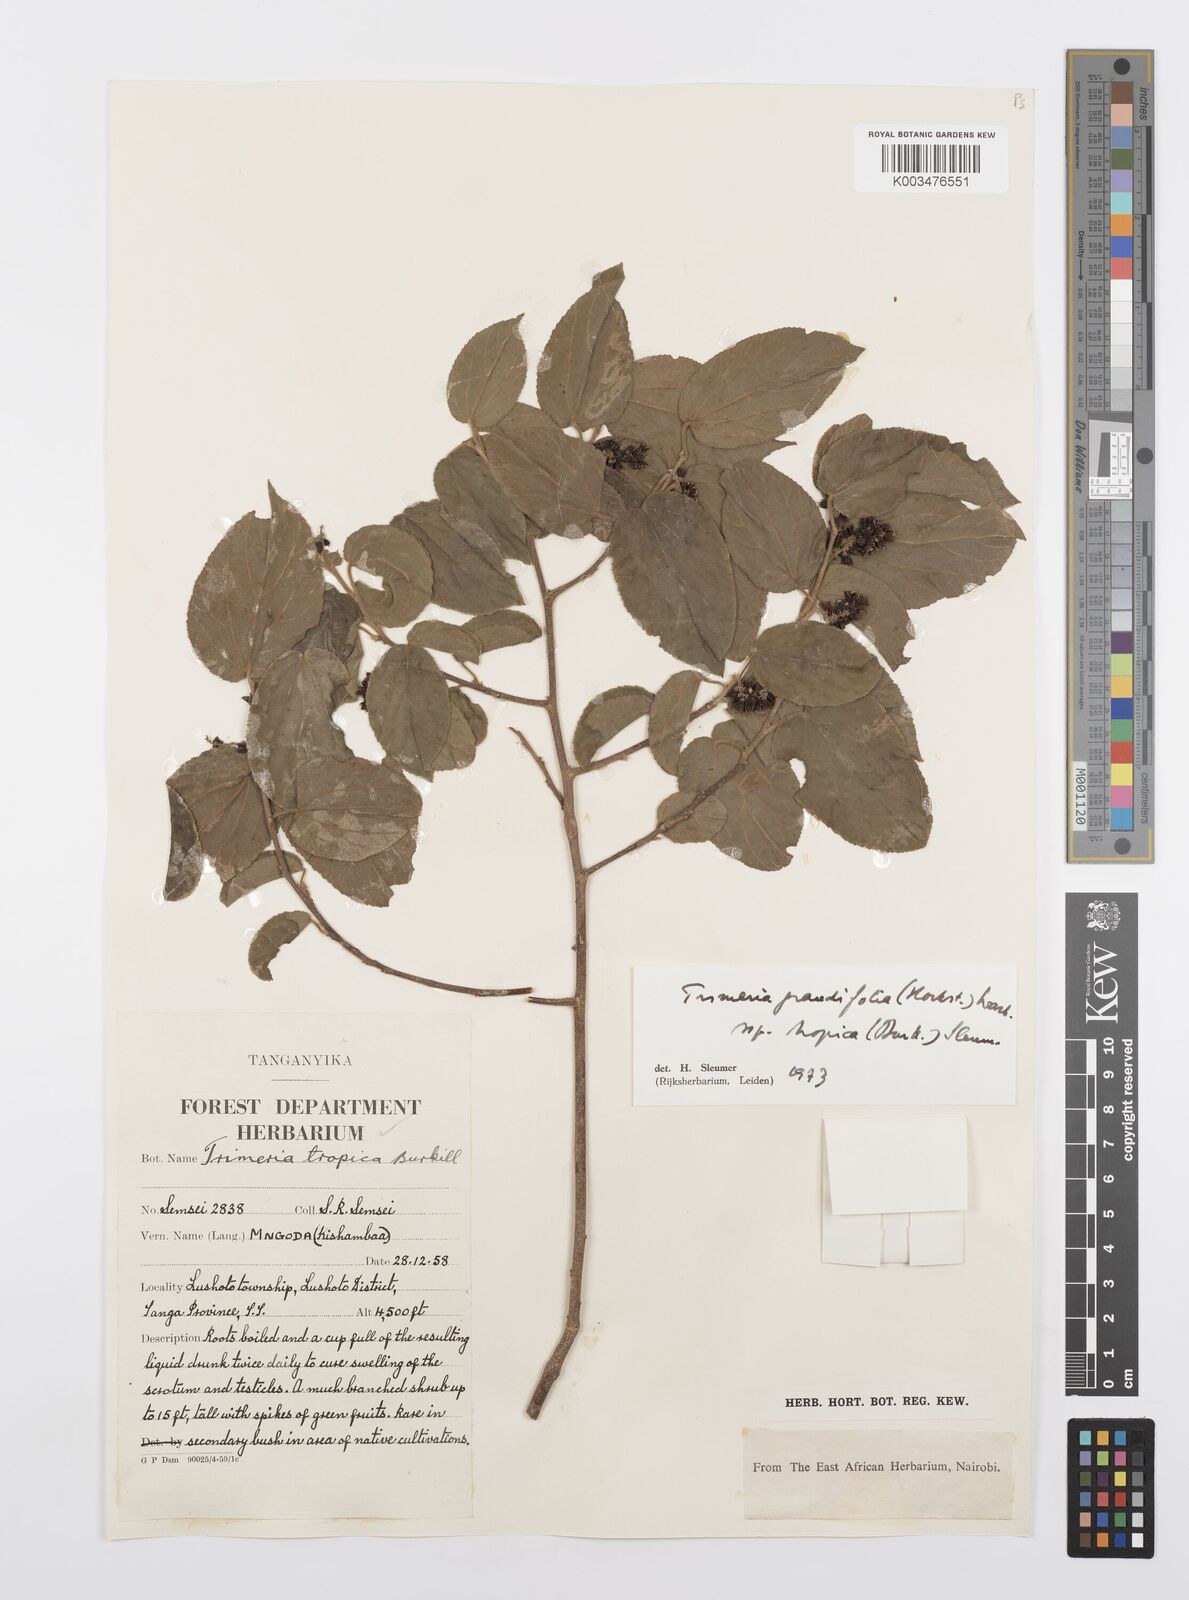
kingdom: Plantae
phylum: Tracheophyta
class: Magnoliopsida
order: Malpighiales
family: Salicaceae
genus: Trimeria
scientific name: Trimeria grandifolia
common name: Wild mulberry
